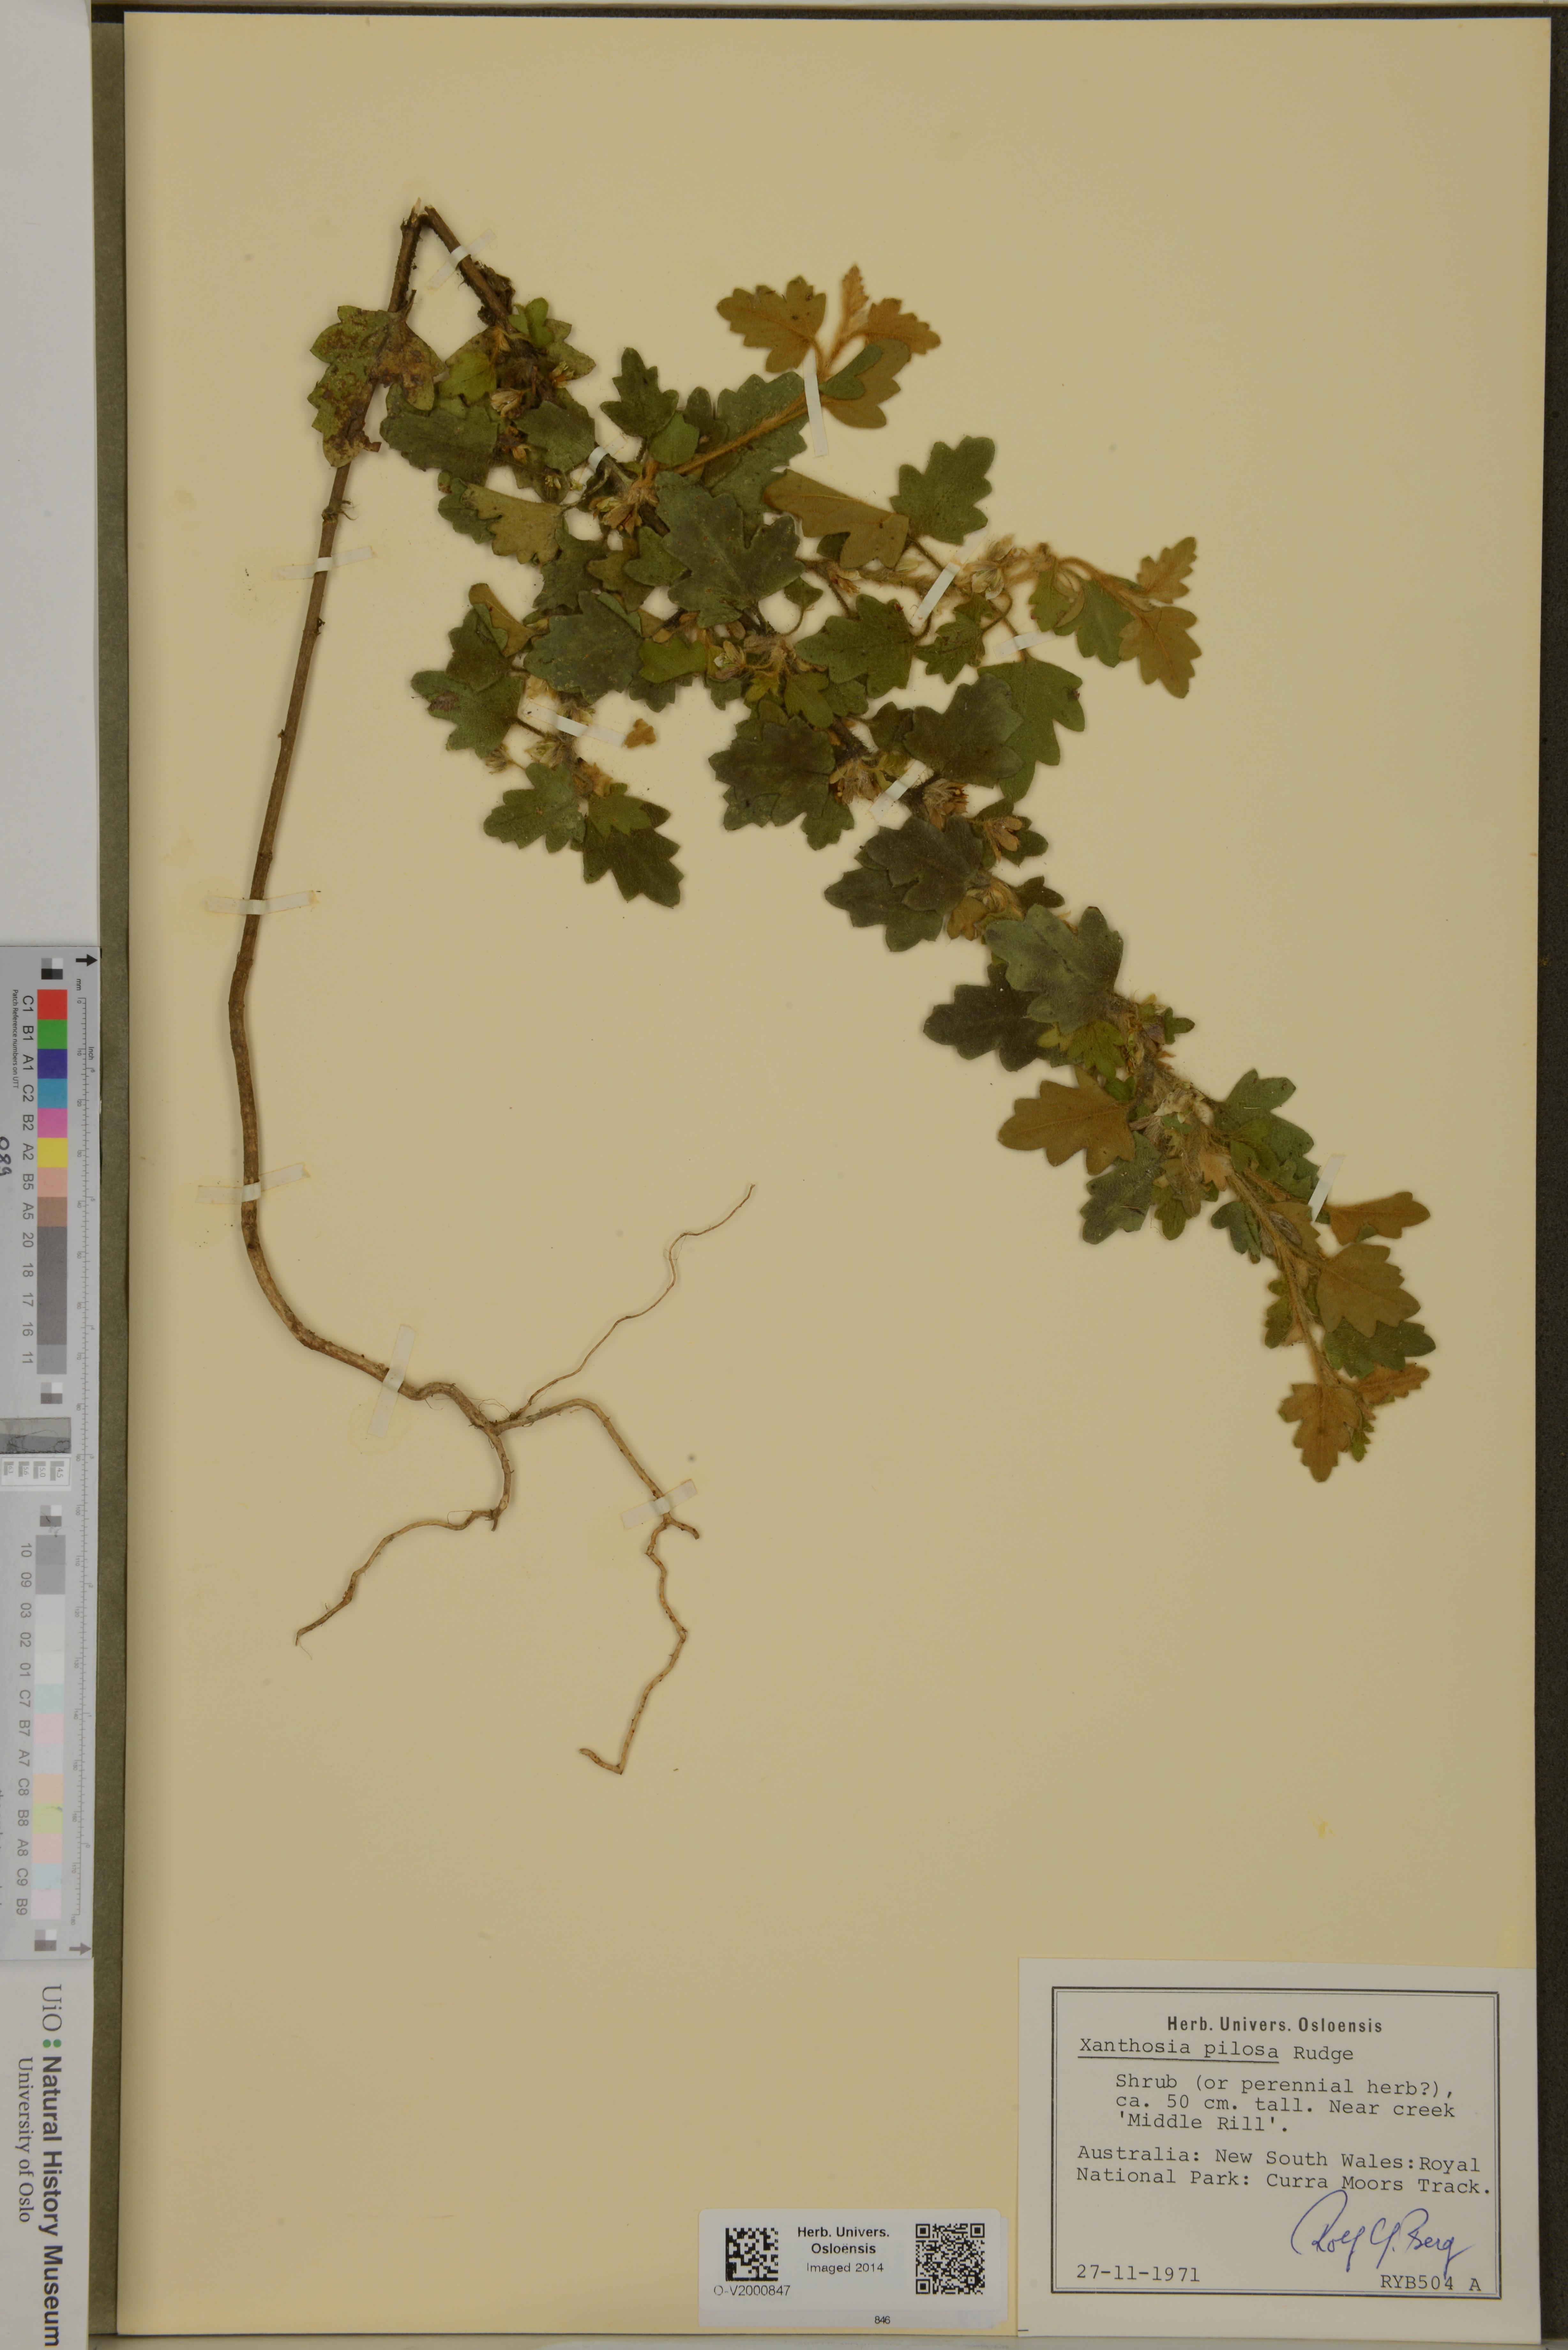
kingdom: Plantae
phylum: Tracheophyta
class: Magnoliopsida
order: Apiales
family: Apiaceae
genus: Xanthosia
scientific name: Xanthosia pilosa
